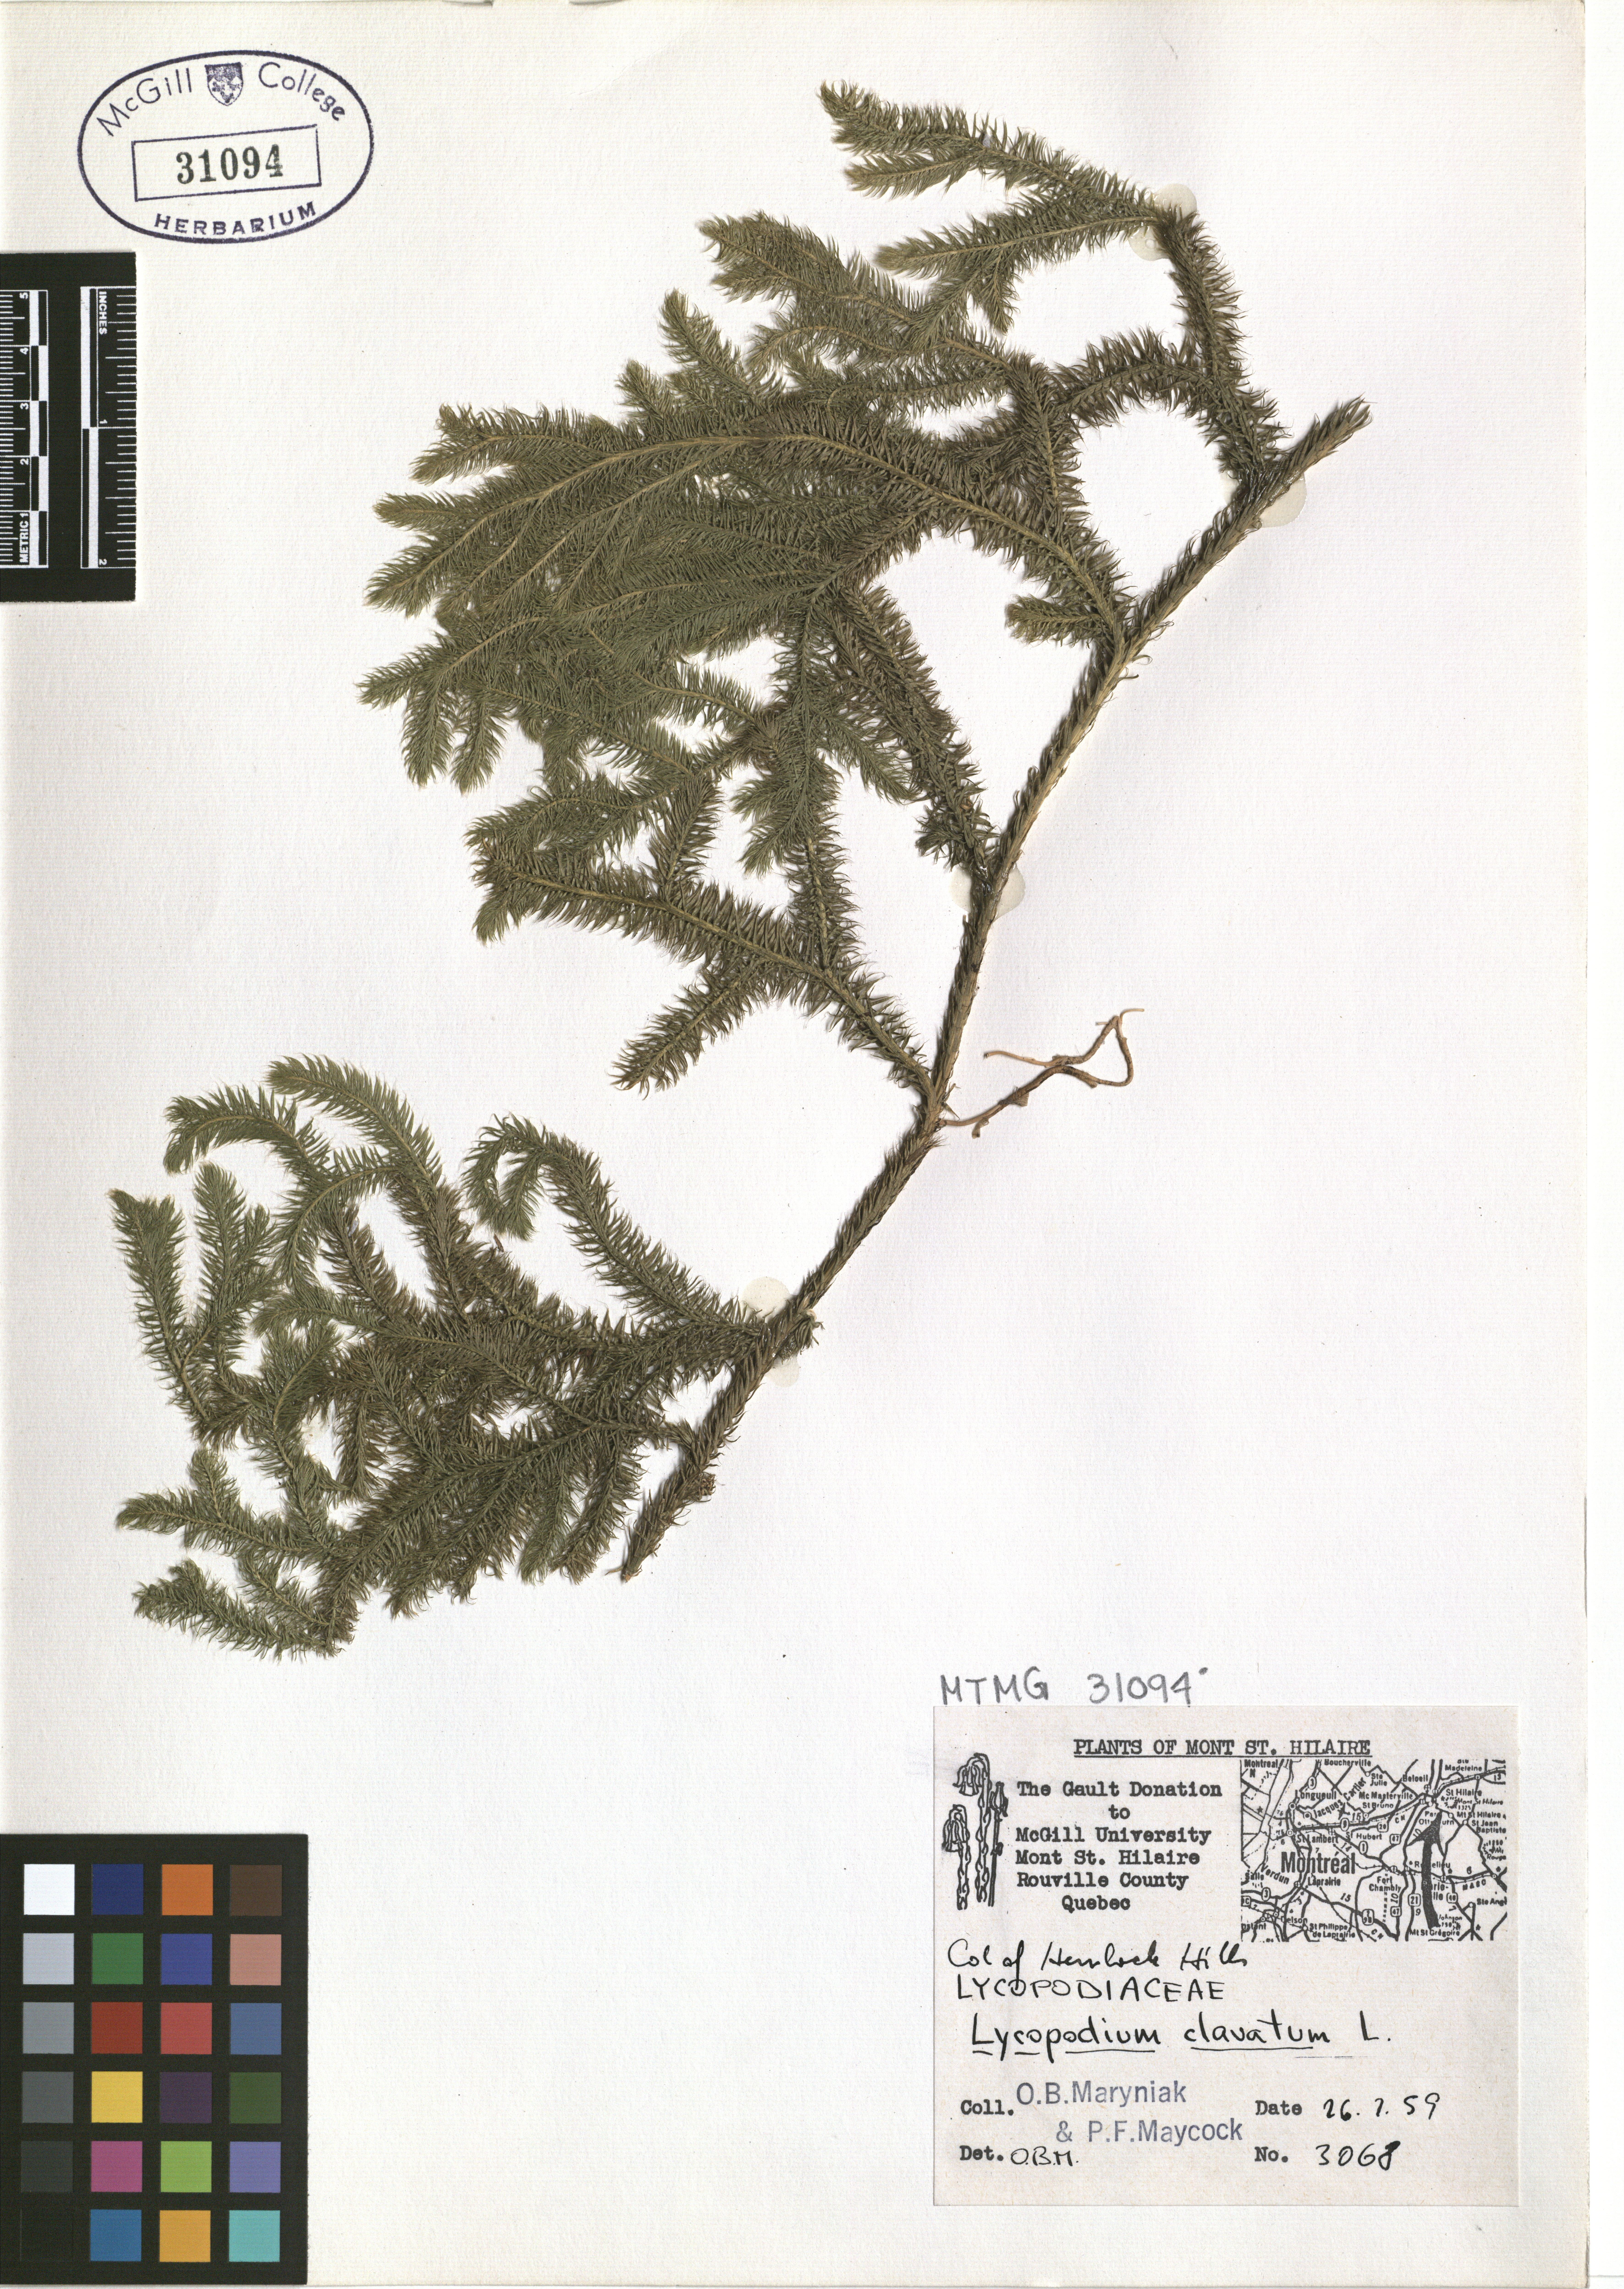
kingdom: Plantae
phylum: Tracheophyta
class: Lycopodiopsida
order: Lycopodiales
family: Lycopodiaceae
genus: Lycopodium
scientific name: Lycopodium clavatum
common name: Stag's-horn clubmoss
